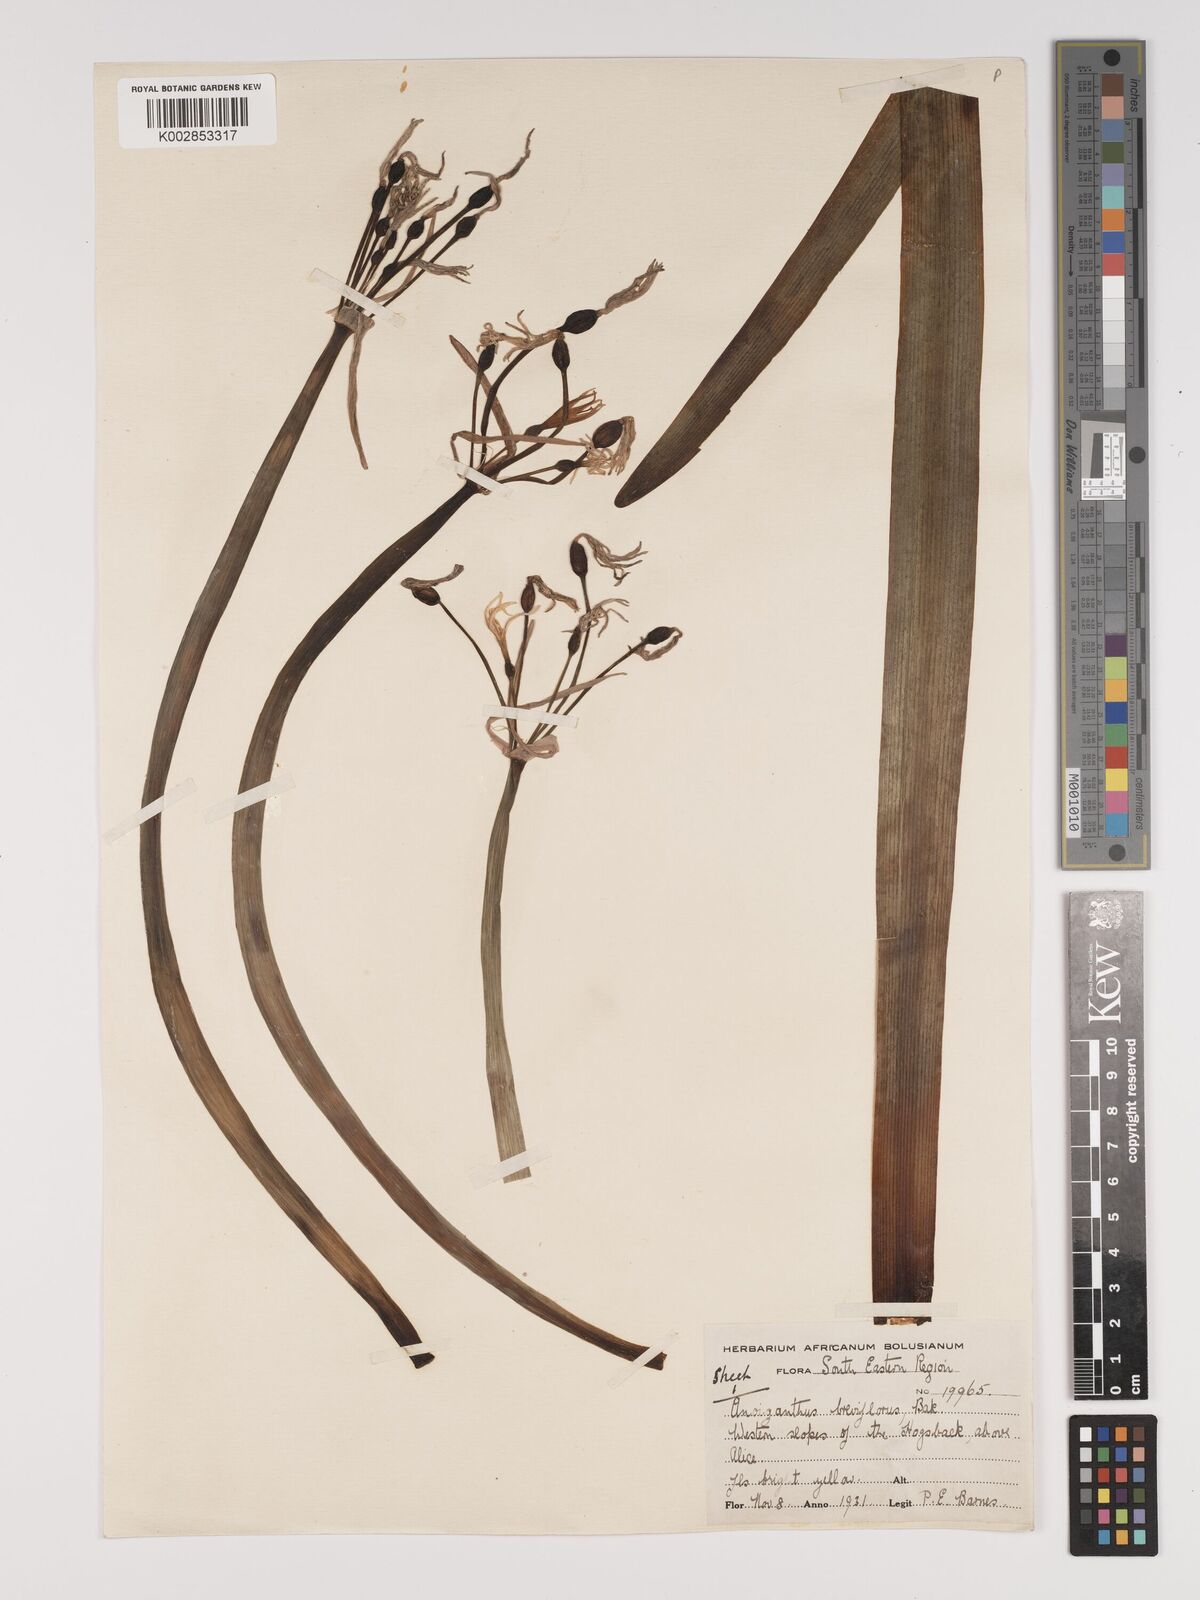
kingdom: Plantae
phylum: Tracheophyta
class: Liliopsida
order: Asparagales
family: Amaryllidaceae
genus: Cyrtanthus
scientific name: Cyrtanthus breviflorus
